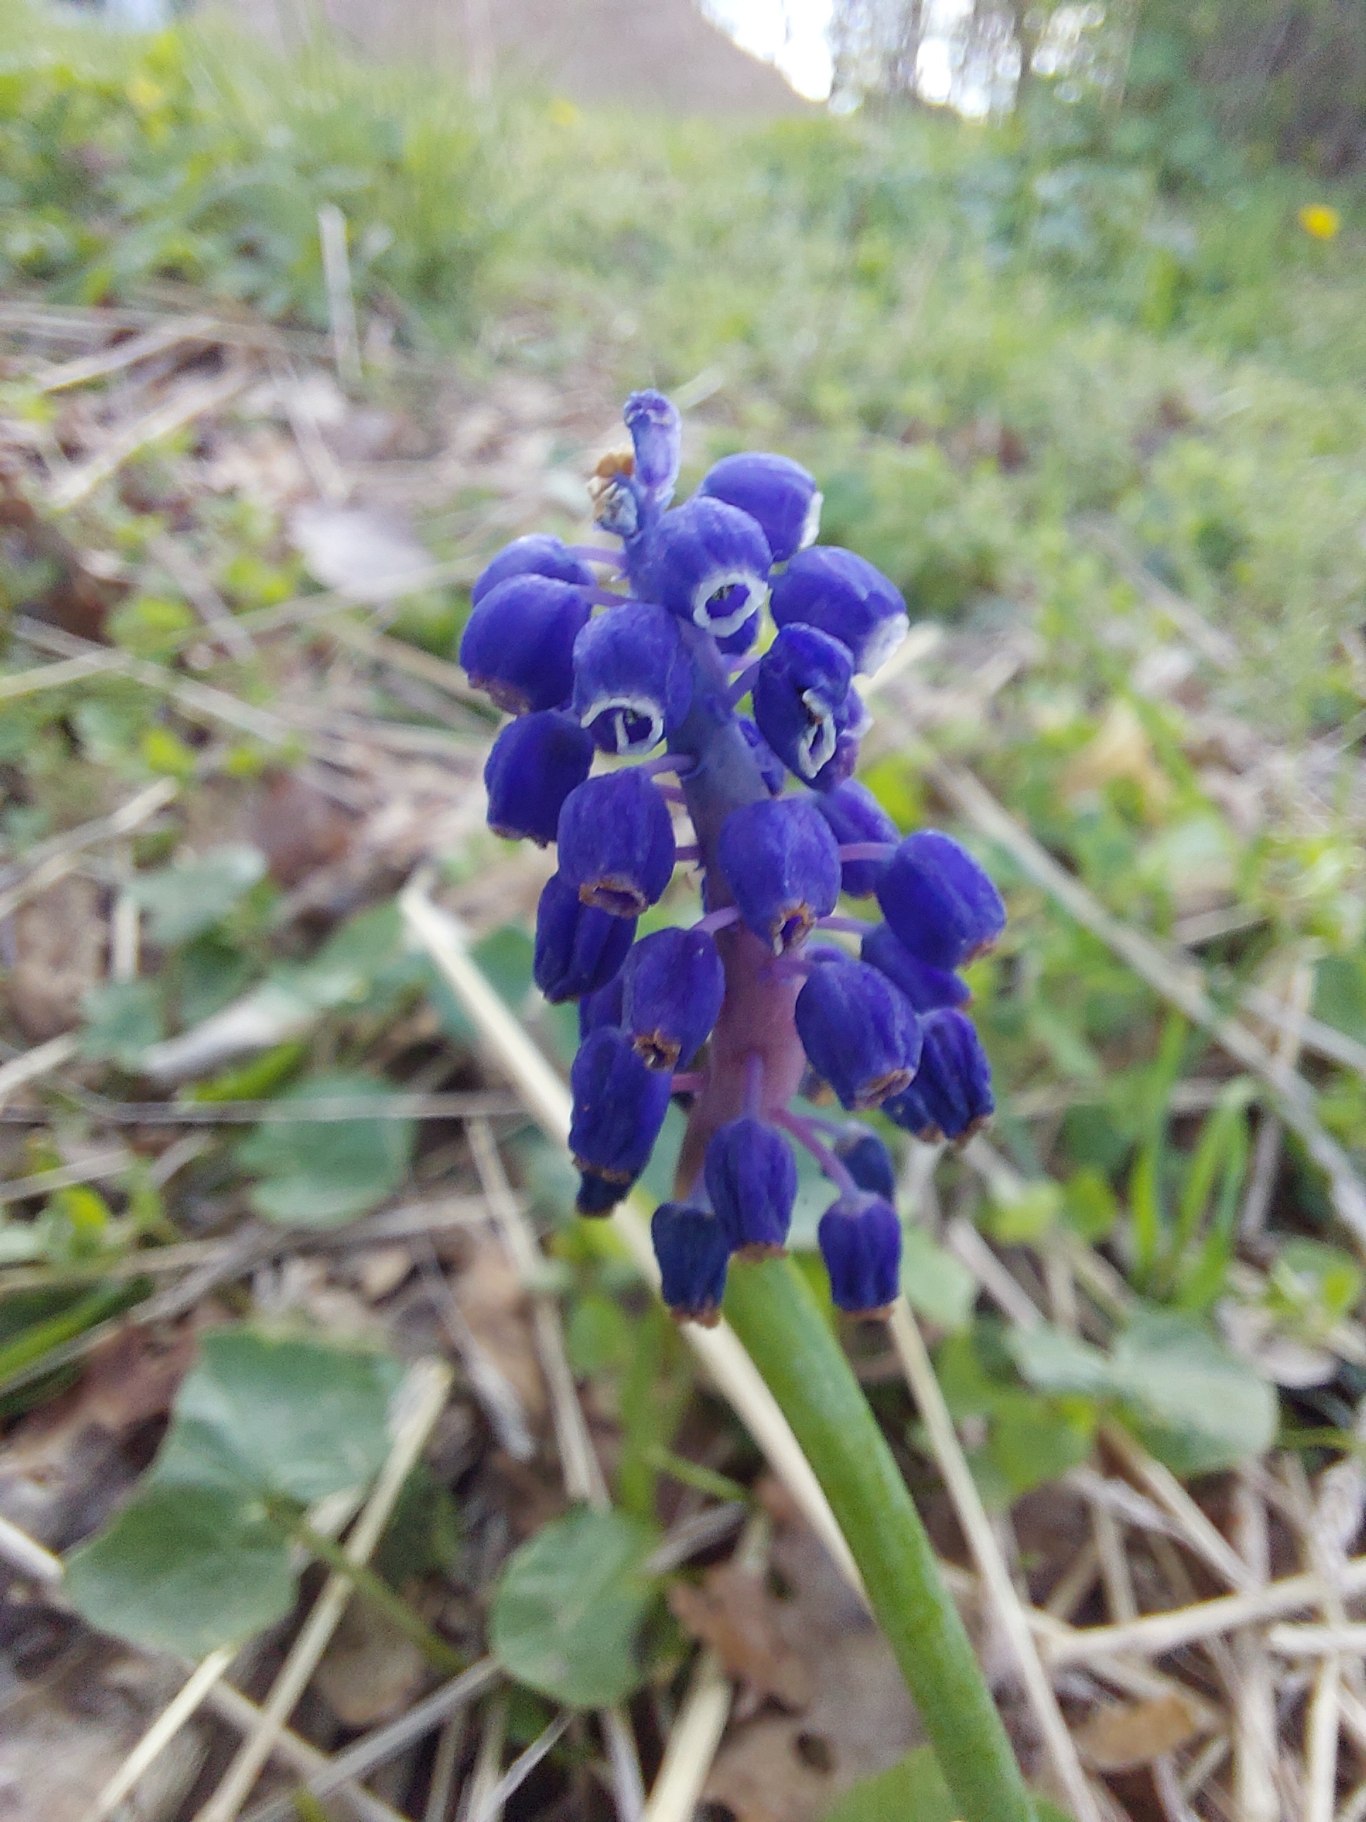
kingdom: Plantae
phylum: Tracheophyta
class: Liliopsida
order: Asparagales
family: Asparagaceae
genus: Muscari
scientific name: Muscari armeniacum
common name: Armensk perlehyacint
